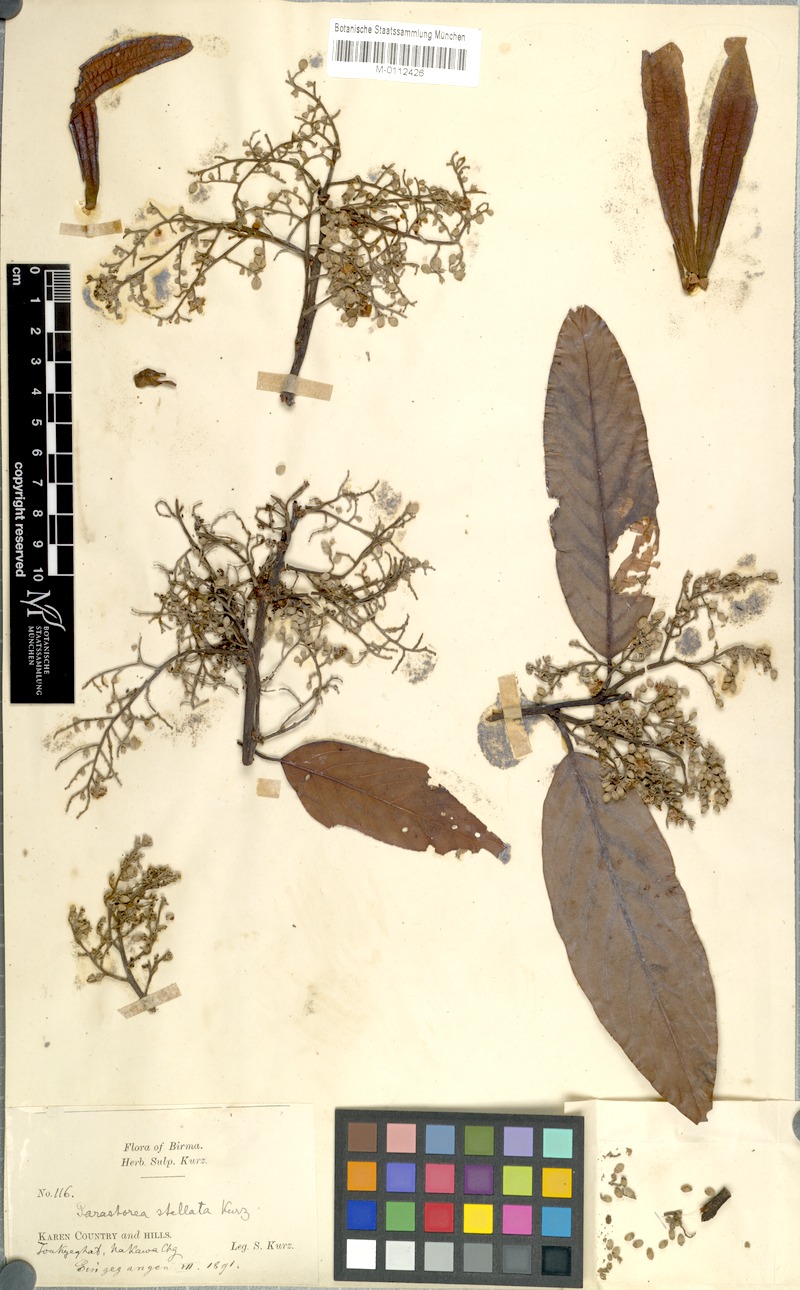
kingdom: Plantae
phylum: Tracheophyta
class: Magnoliopsida
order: Malvales
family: Dipterocarpaceae
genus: Parashorea
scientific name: Parashorea stellata
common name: Thinkadu
